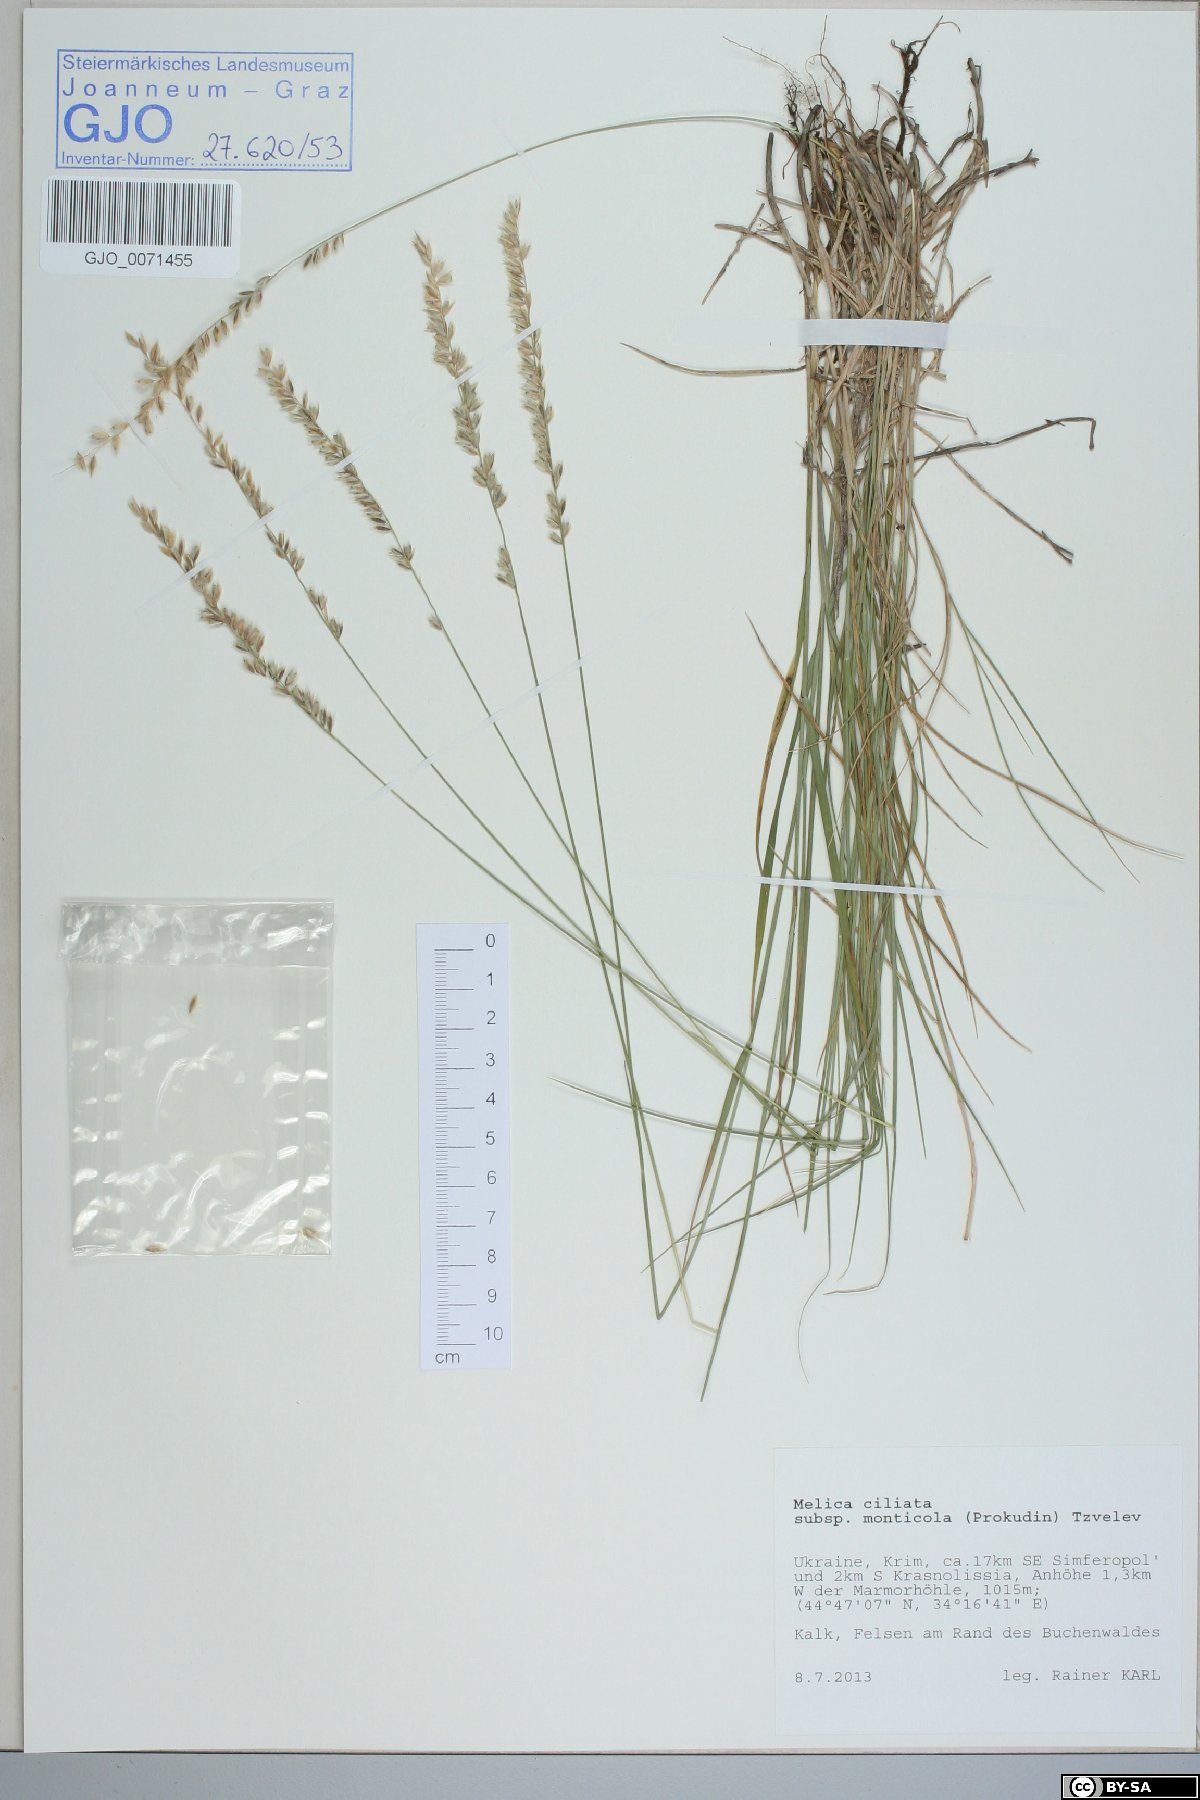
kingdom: Plantae
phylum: Tracheophyta
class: Liliopsida
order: Poales
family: Poaceae
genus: Melica
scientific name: Melica ciliata
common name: Hairy melicgrass
